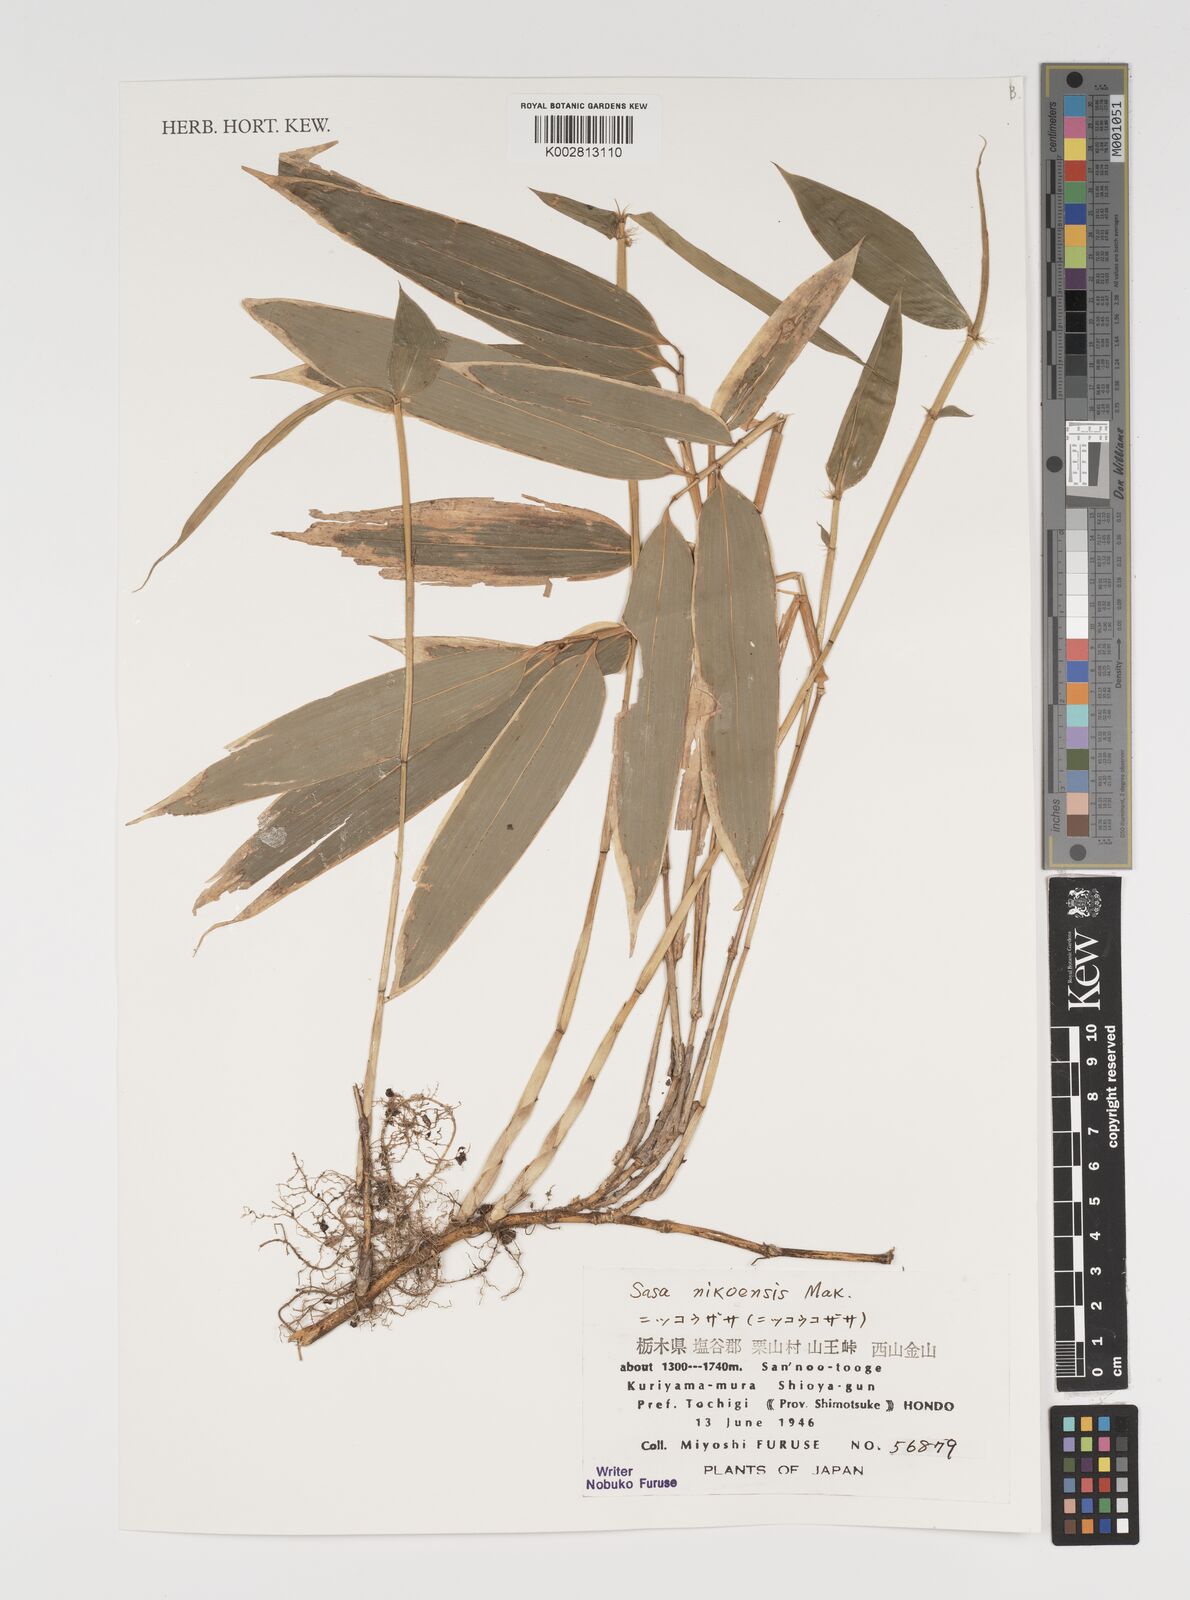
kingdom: Plantae
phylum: Tracheophyta
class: Liliopsida
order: Poales
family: Poaceae
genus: Sasa
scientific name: Sasa chartacea
